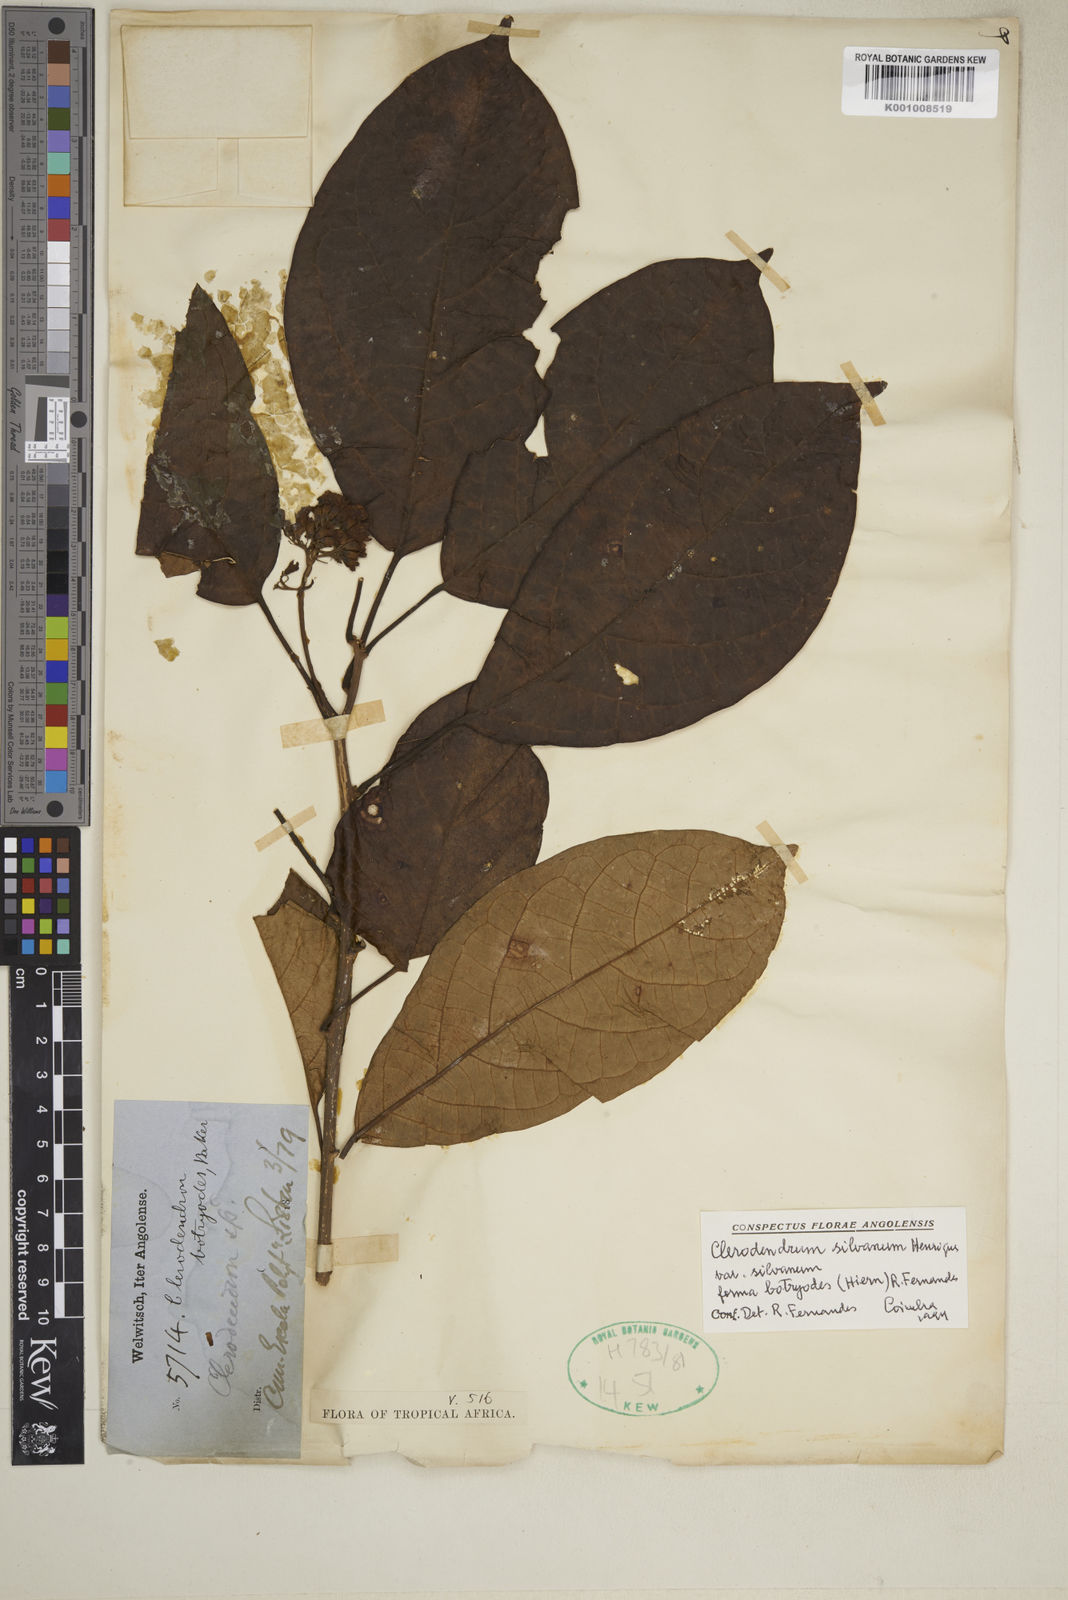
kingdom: Plantae
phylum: Tracheophyta
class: Magnoliopsida
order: Lamiales
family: Lamiaceae
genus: Clerodendrum
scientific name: Clerodendrum silvanum
